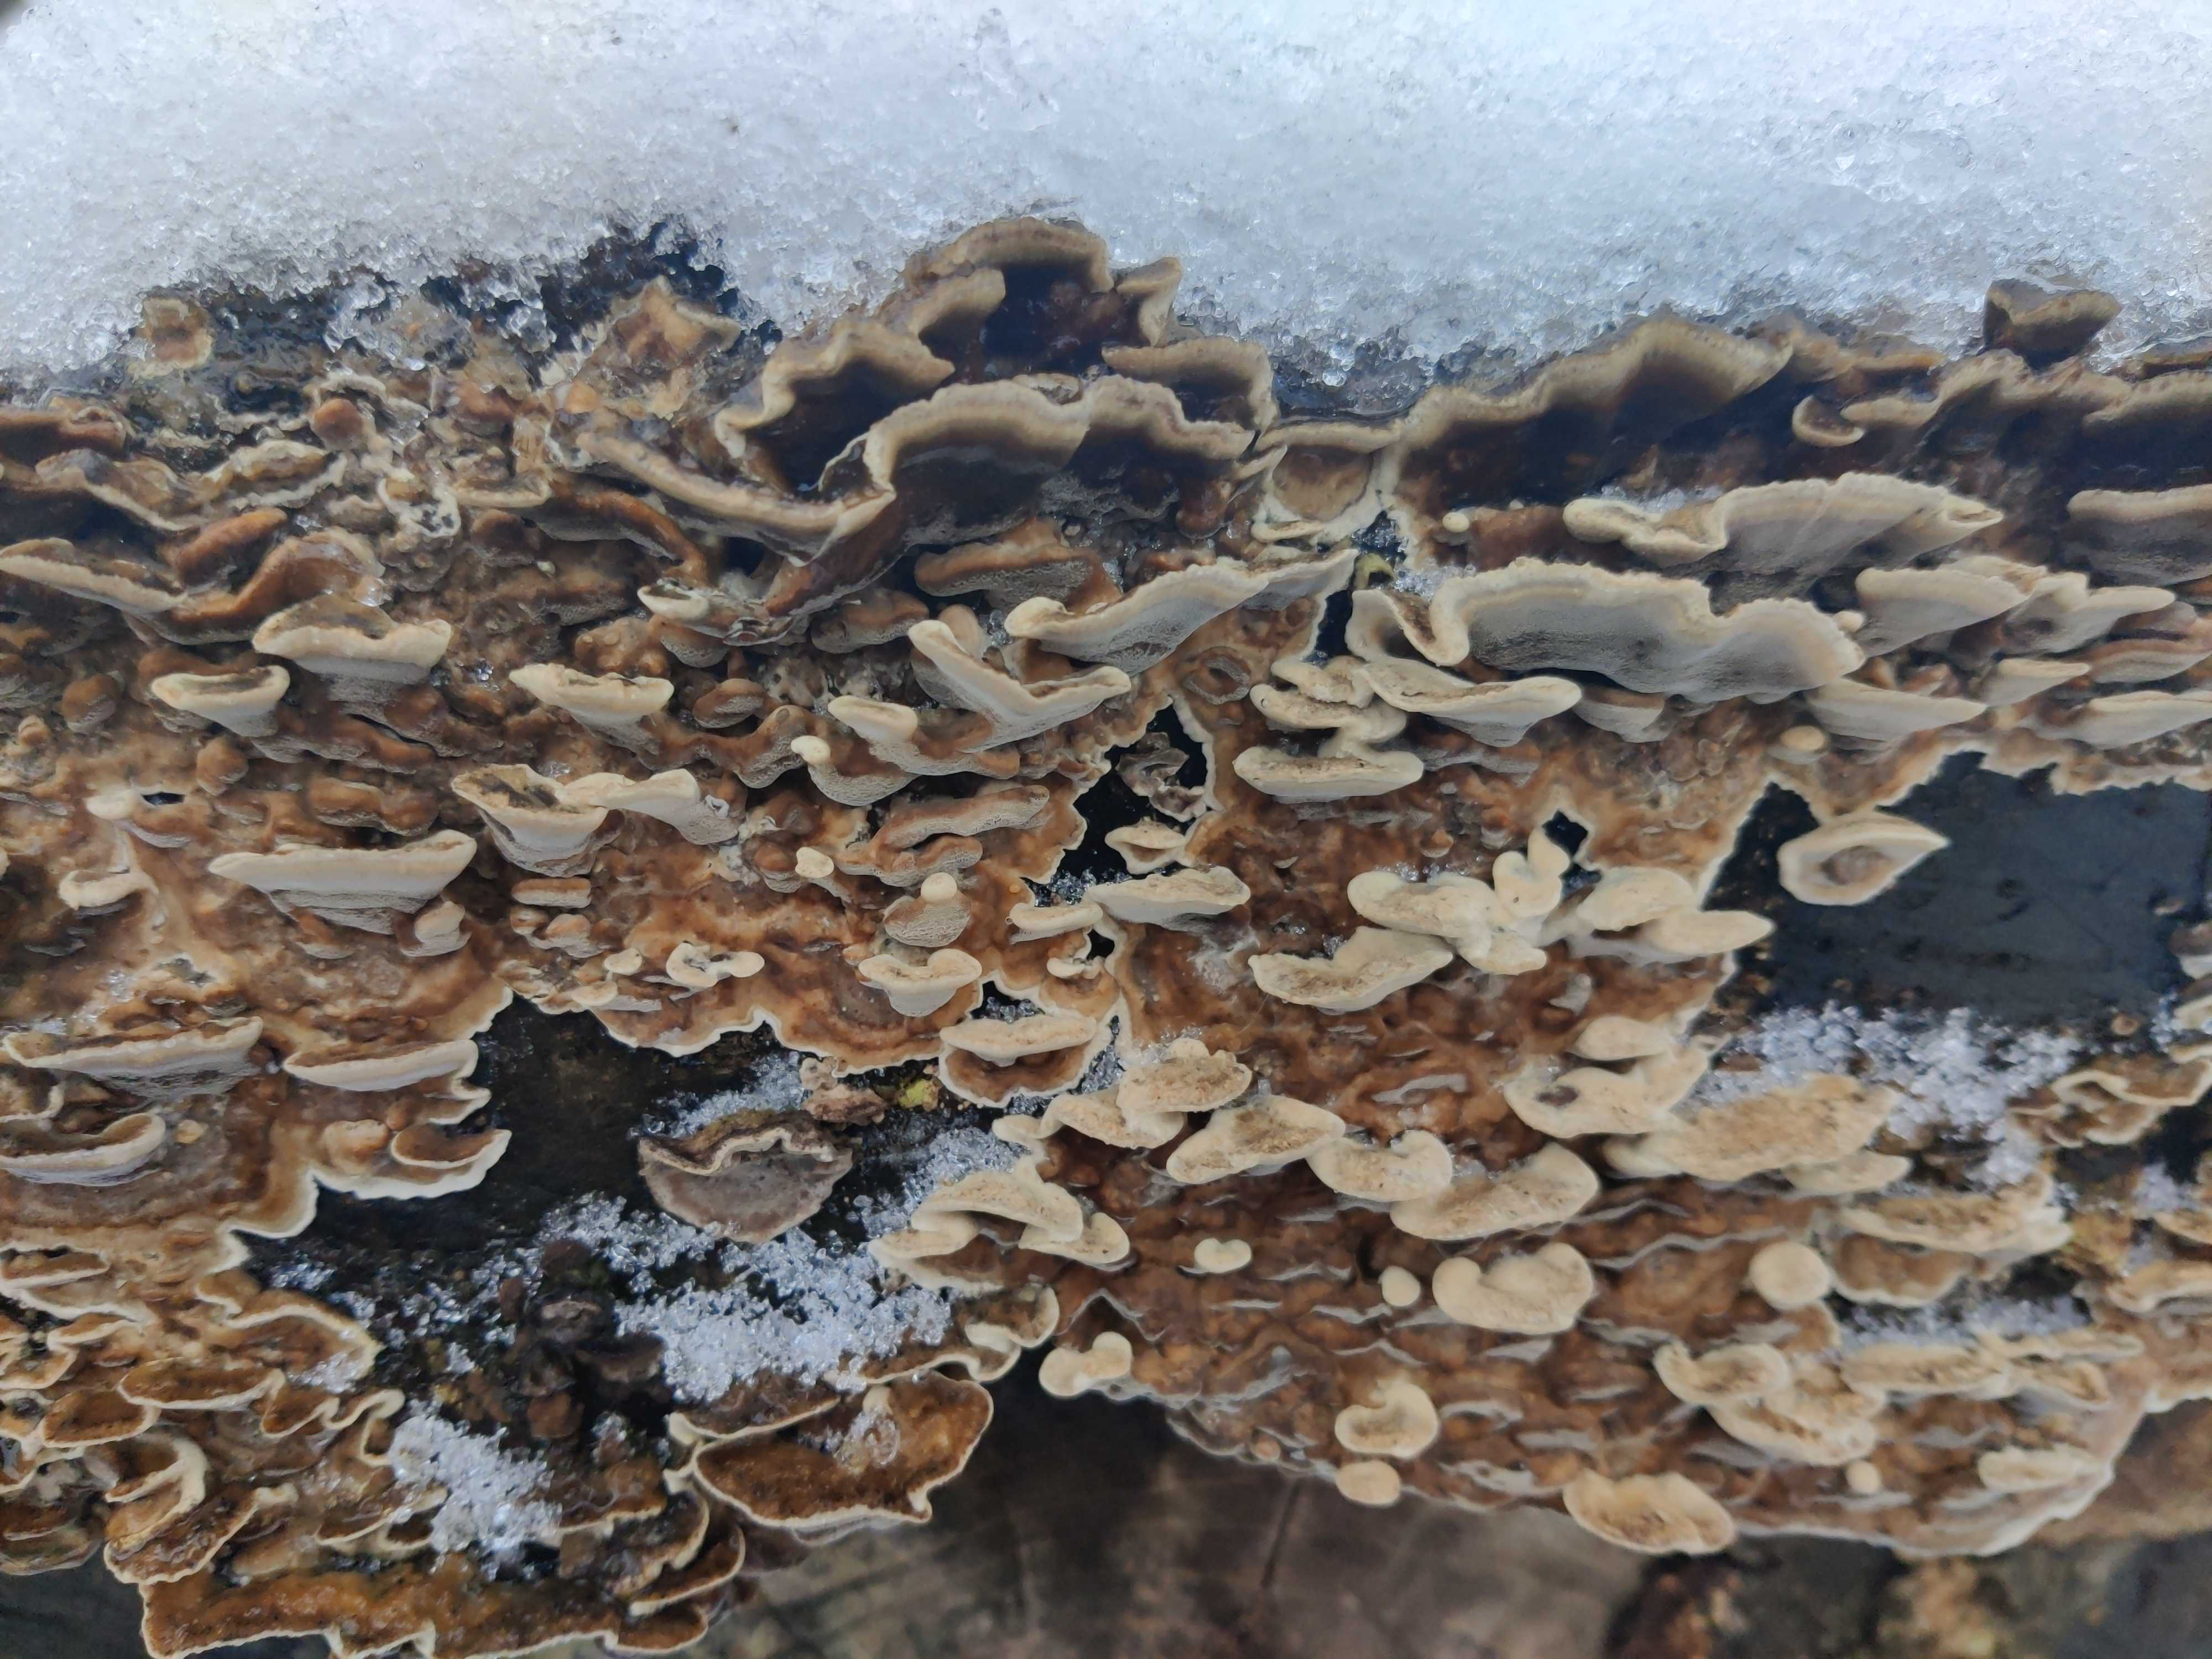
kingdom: Fungi
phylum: Basidiomycota
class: Agaricomycetes
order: Polyporales
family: Phanerochaetaceae
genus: Bjerkandera
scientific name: Bjerkandera adusta
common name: sveden sodporesvamp
